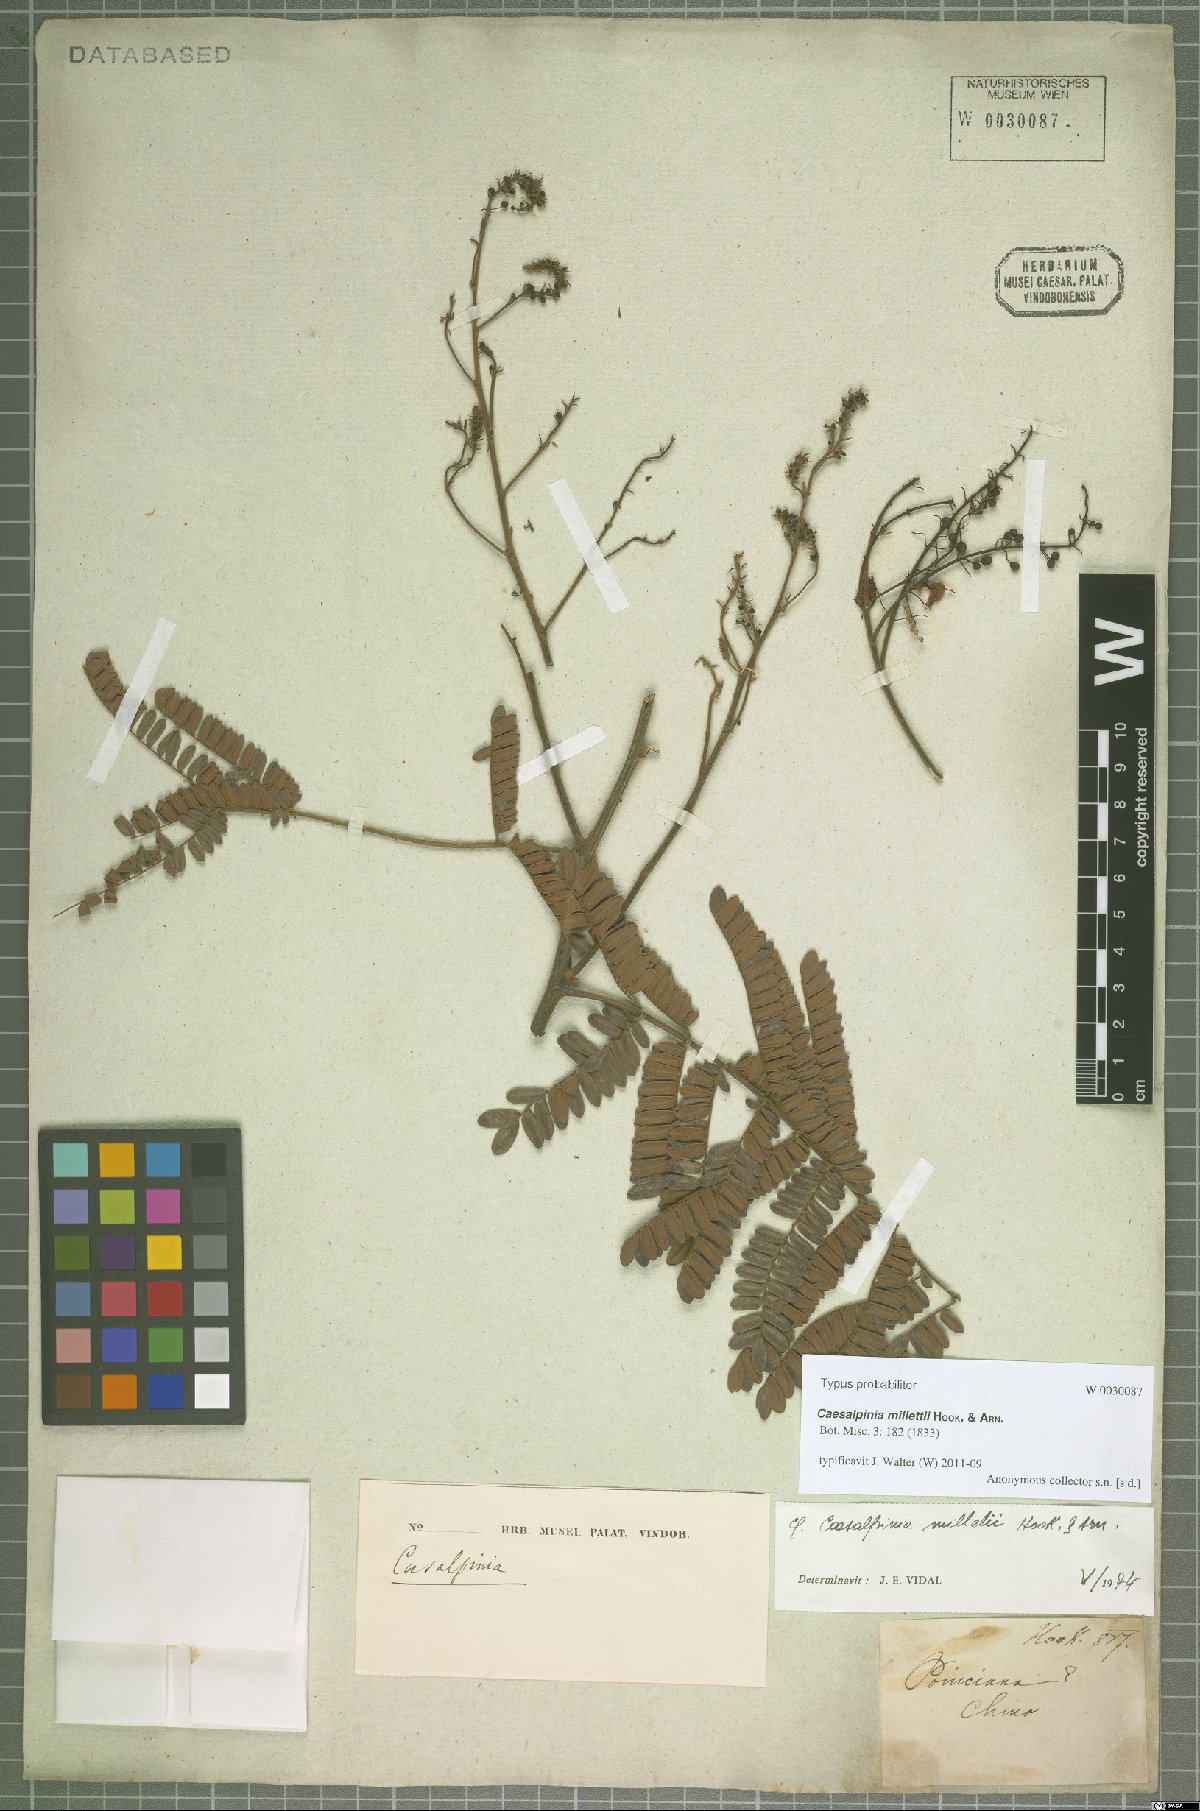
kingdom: Plantae
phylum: Tracheophyta
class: Magnoliopsida
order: Fabales
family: Fabaceae
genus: Biancaea
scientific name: Biancaea millettii
